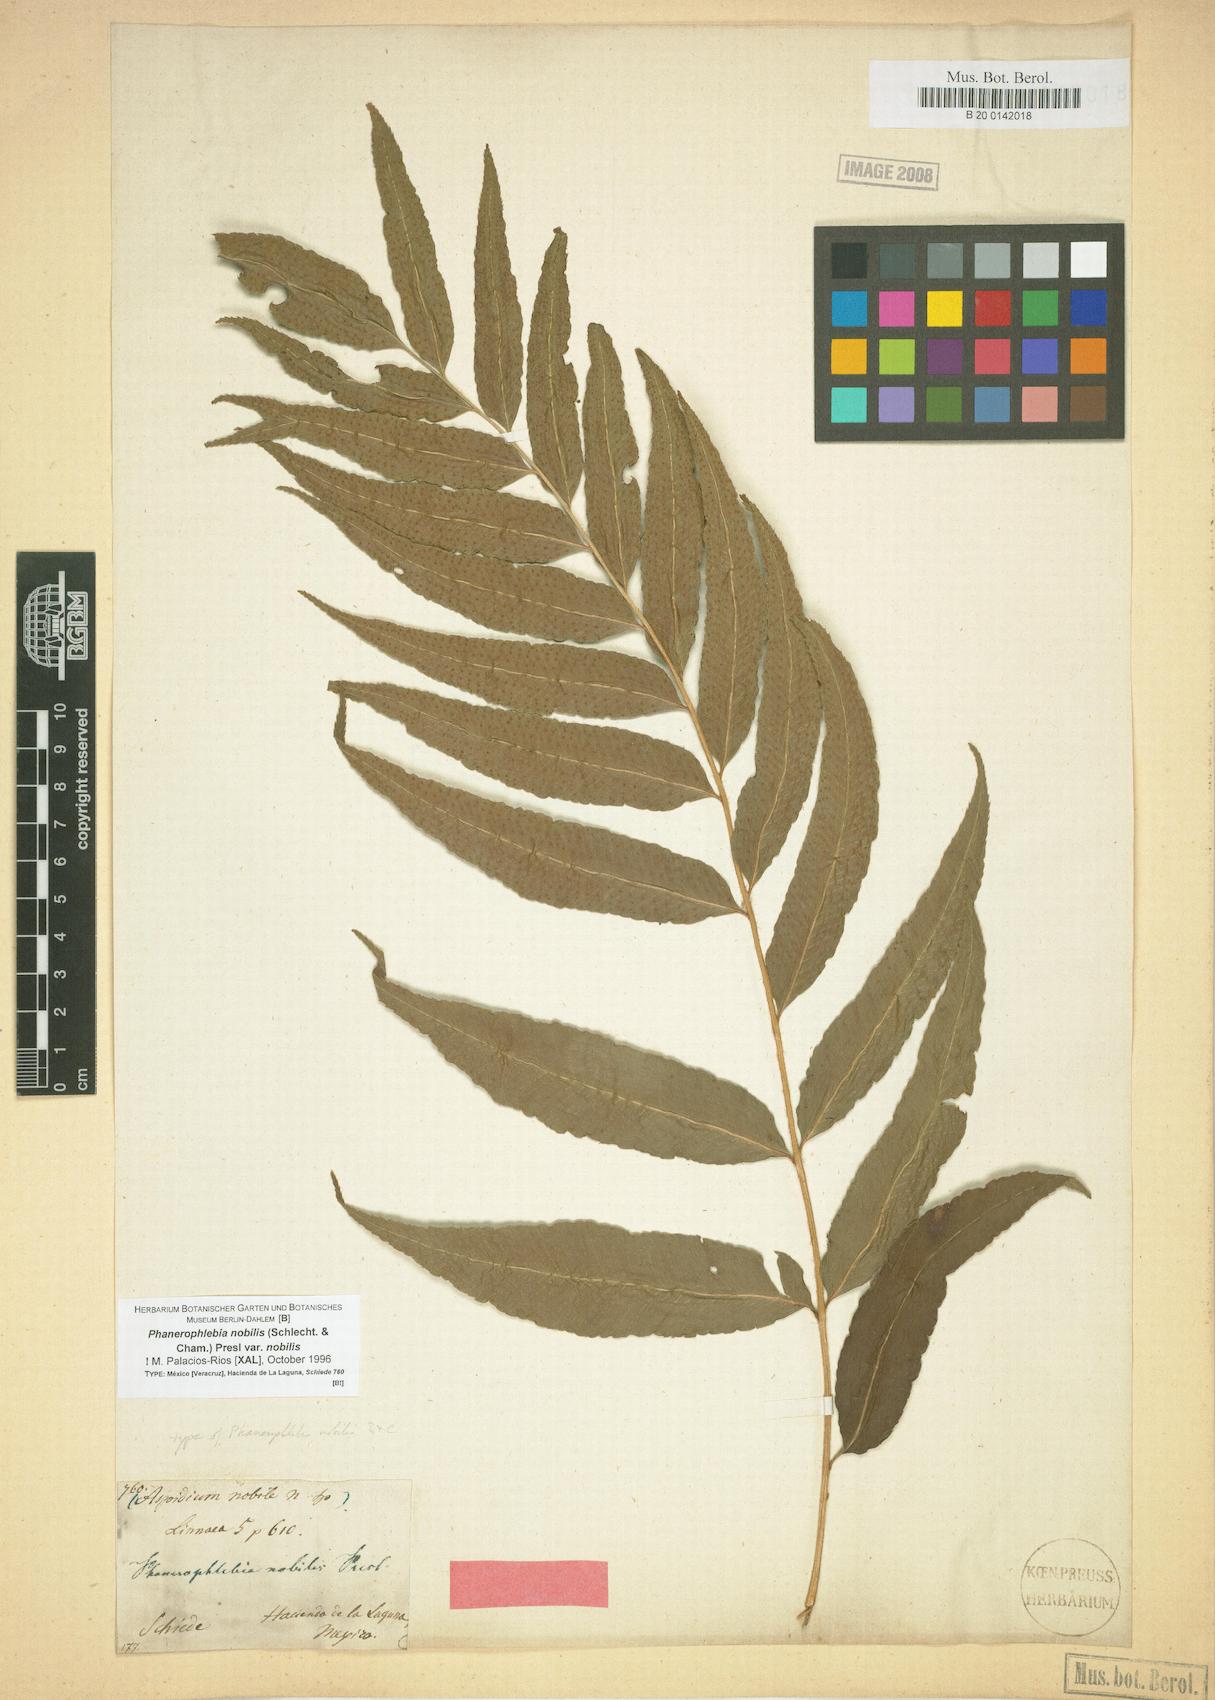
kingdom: Plantae
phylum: Tracheophyta
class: Polypodiopsida
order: Polypodiales
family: Dryopteridaceae
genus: Phanerophlebia
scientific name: Phanerophlebia nobilis
